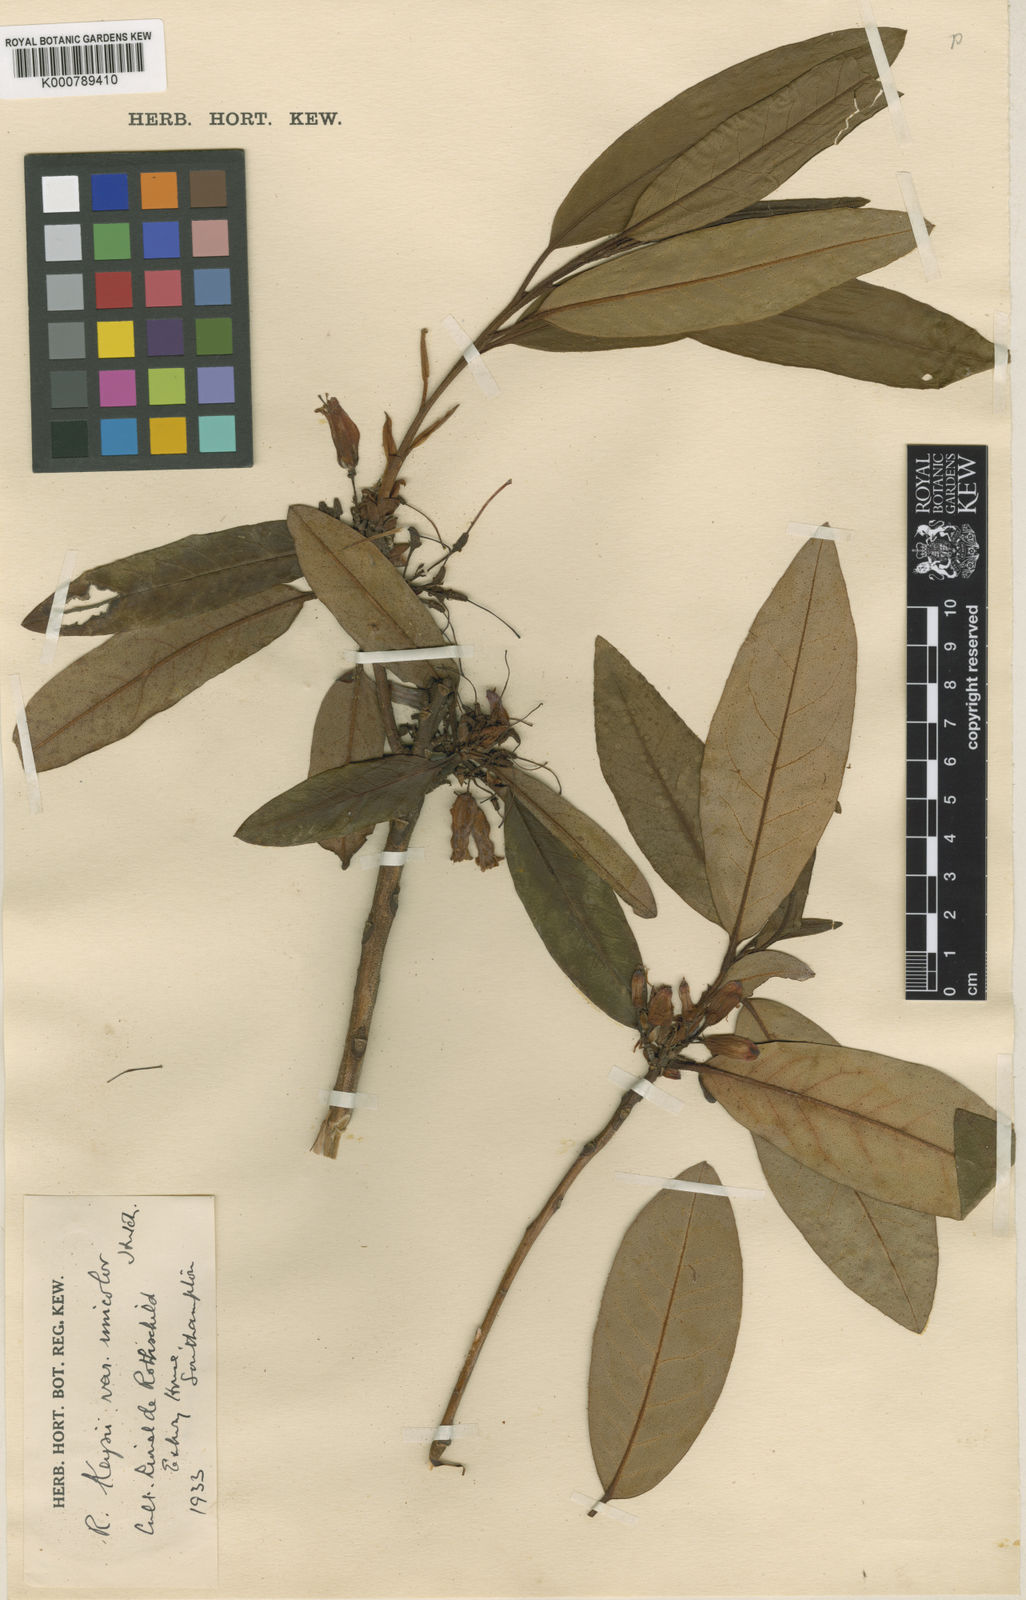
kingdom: Plantae
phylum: Tracheophyta
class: Magnoliopsida
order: Ericales
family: Ericaceae
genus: Rhododendron
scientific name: Rhododendron
